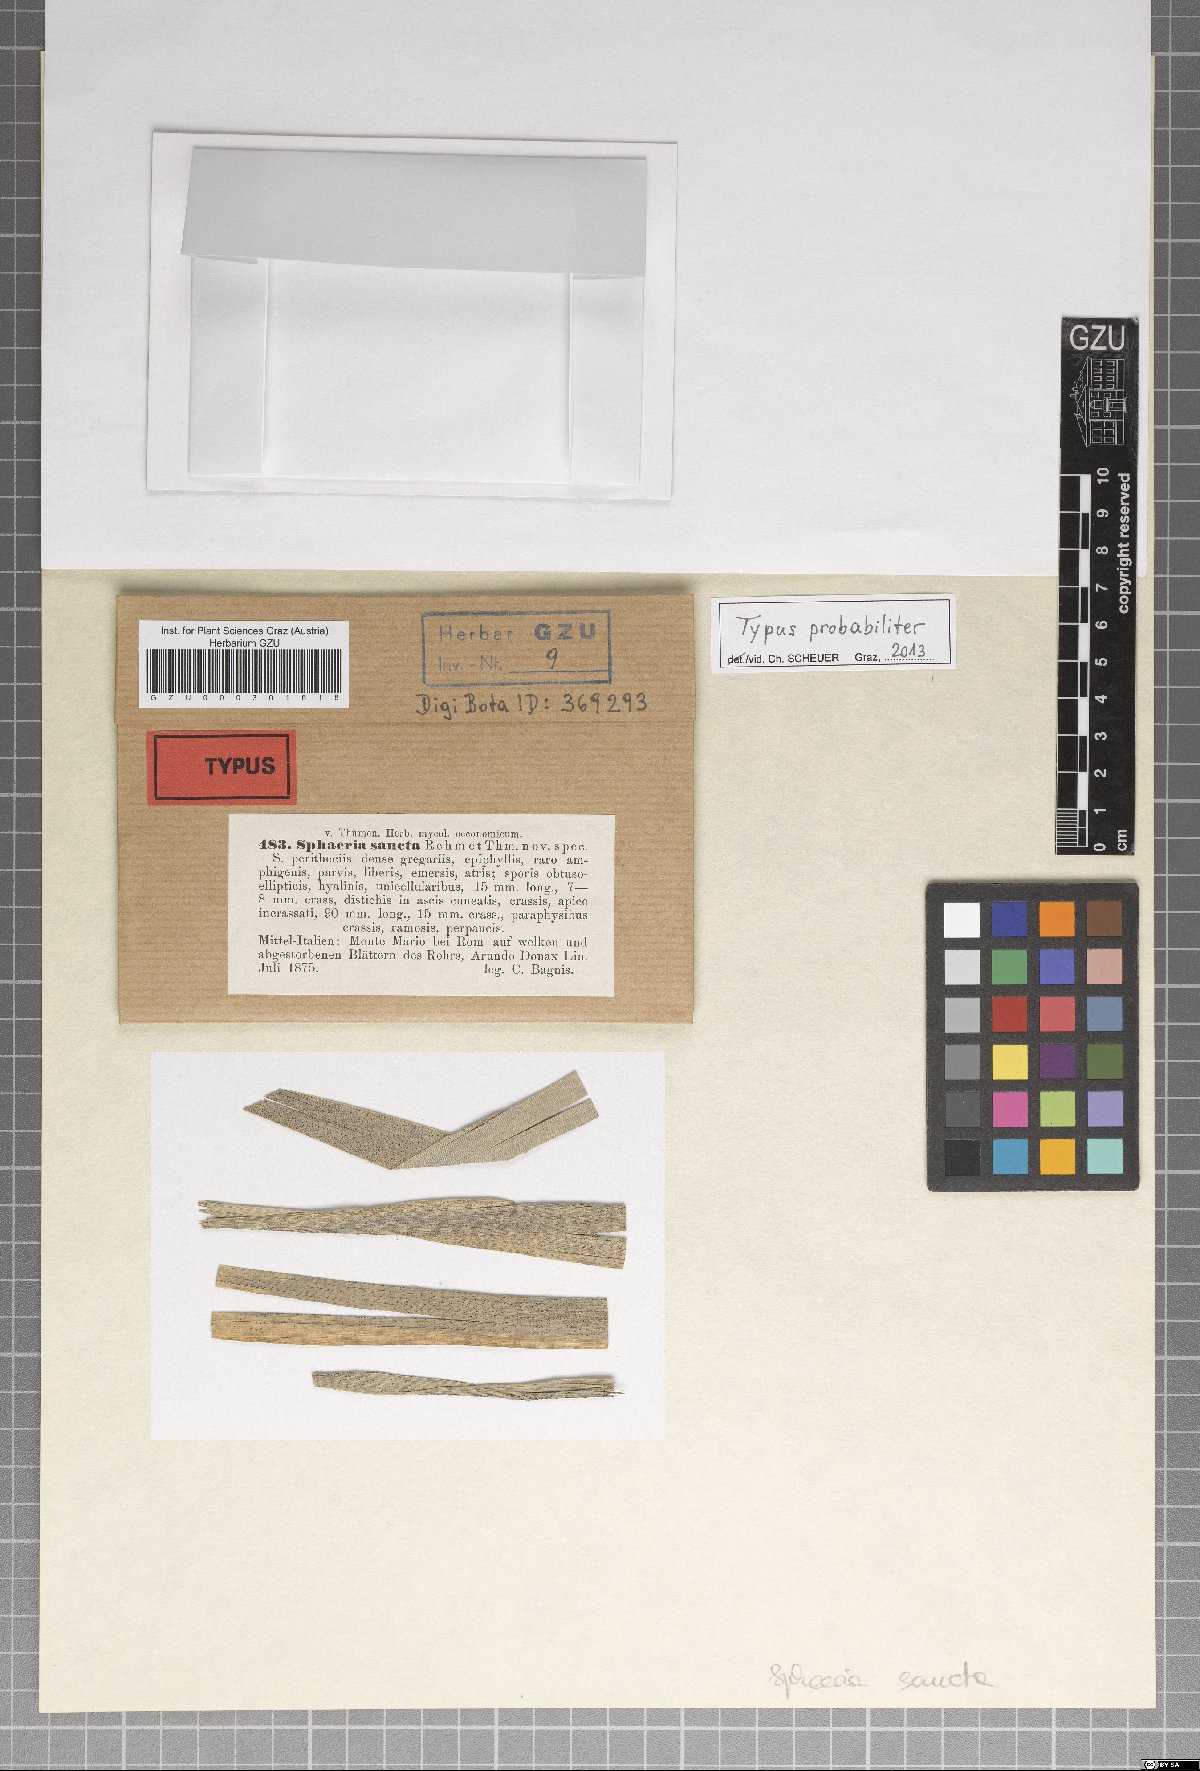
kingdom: Fungi
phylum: Ascomycota
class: Sordariomycetes
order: Xylariales
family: Xylariaceae
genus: Sphaeria
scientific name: Sphaeria
